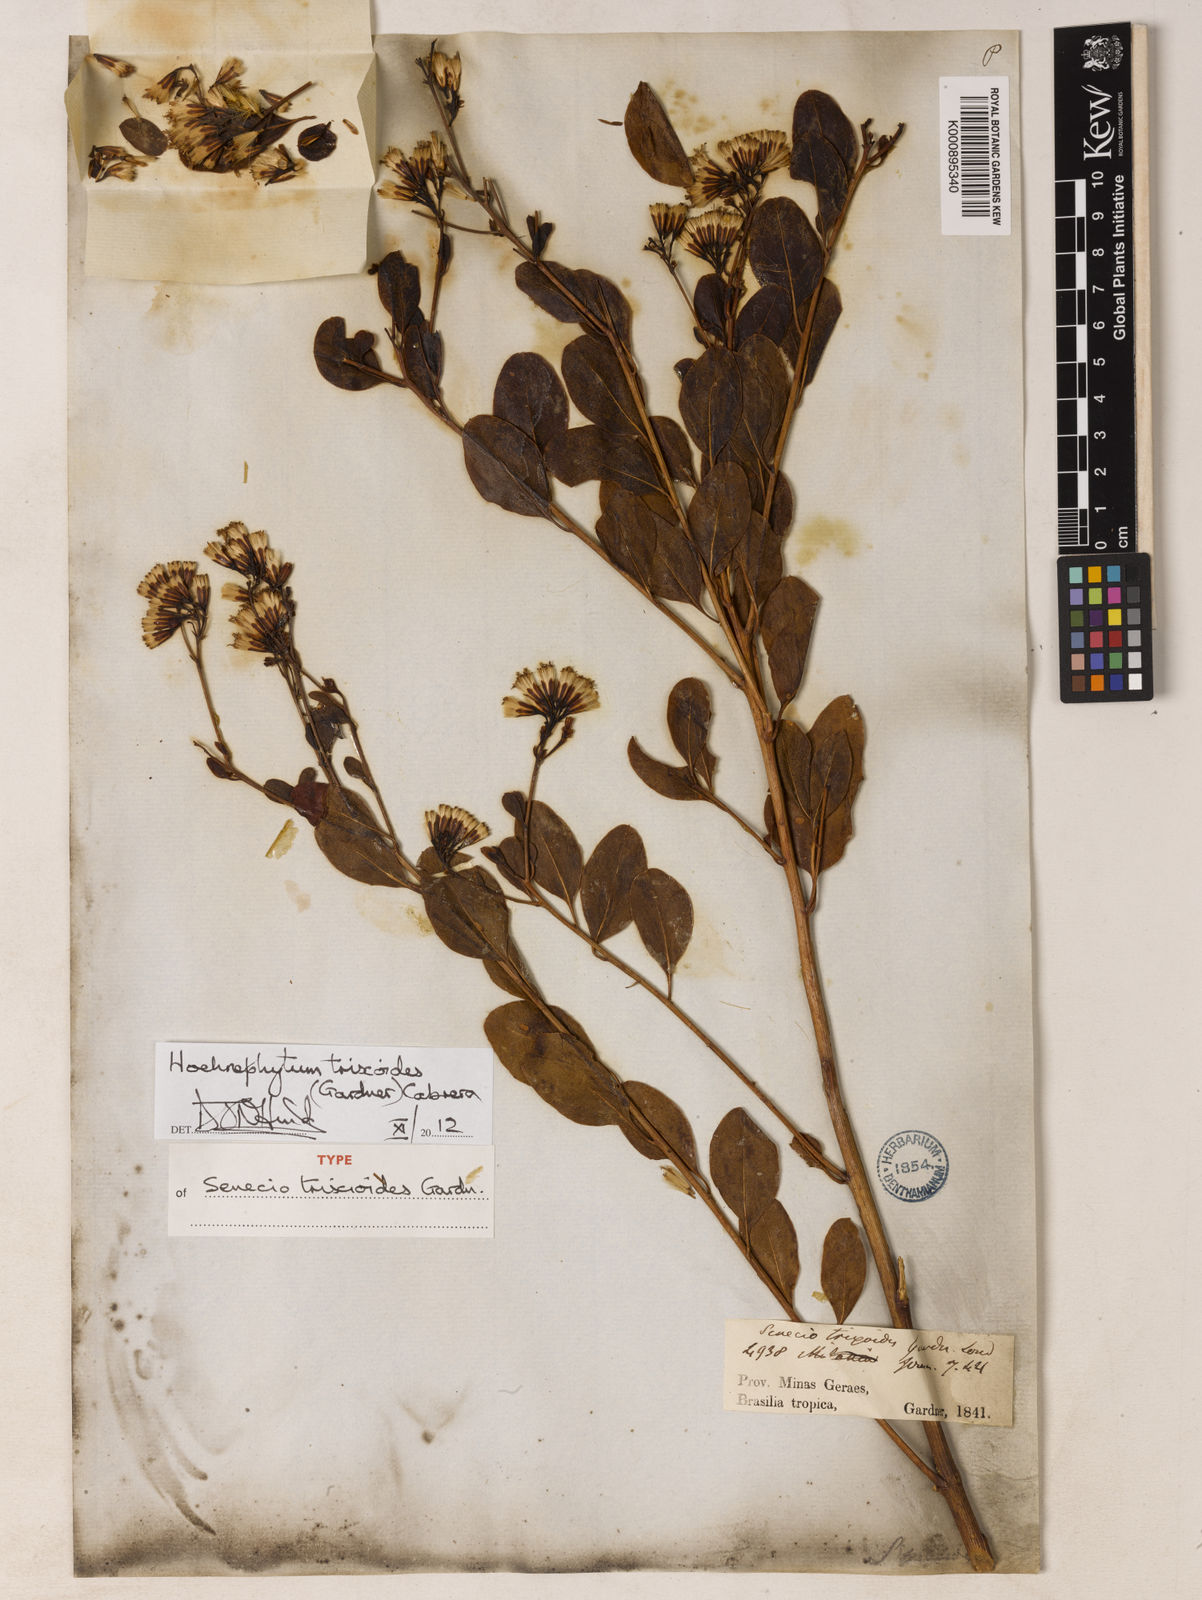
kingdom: Plantae
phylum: Tracheophyta
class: Magnoliopsida
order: Asterales
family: Asteraceae
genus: Hoehnephytum
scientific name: Hoehnephytum trixoides
